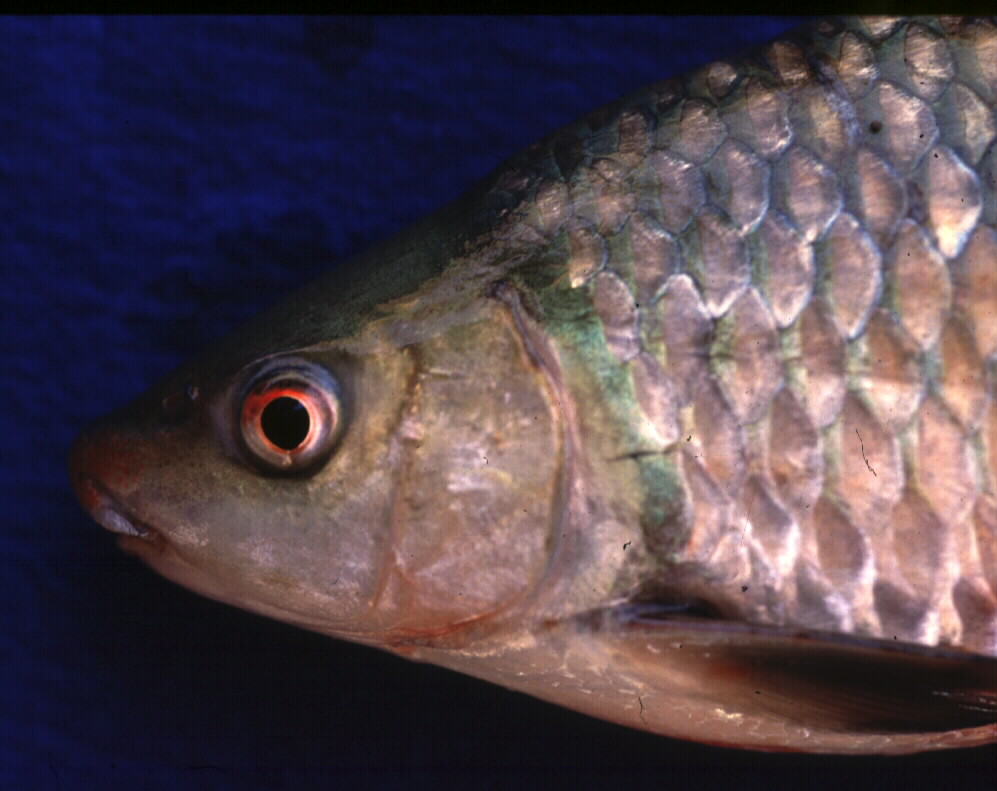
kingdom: Animalia
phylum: Chordata
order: Cypriniformes
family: Cyprinidae
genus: Labeo
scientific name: Labeo altivelis
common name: Hunyani labeo
